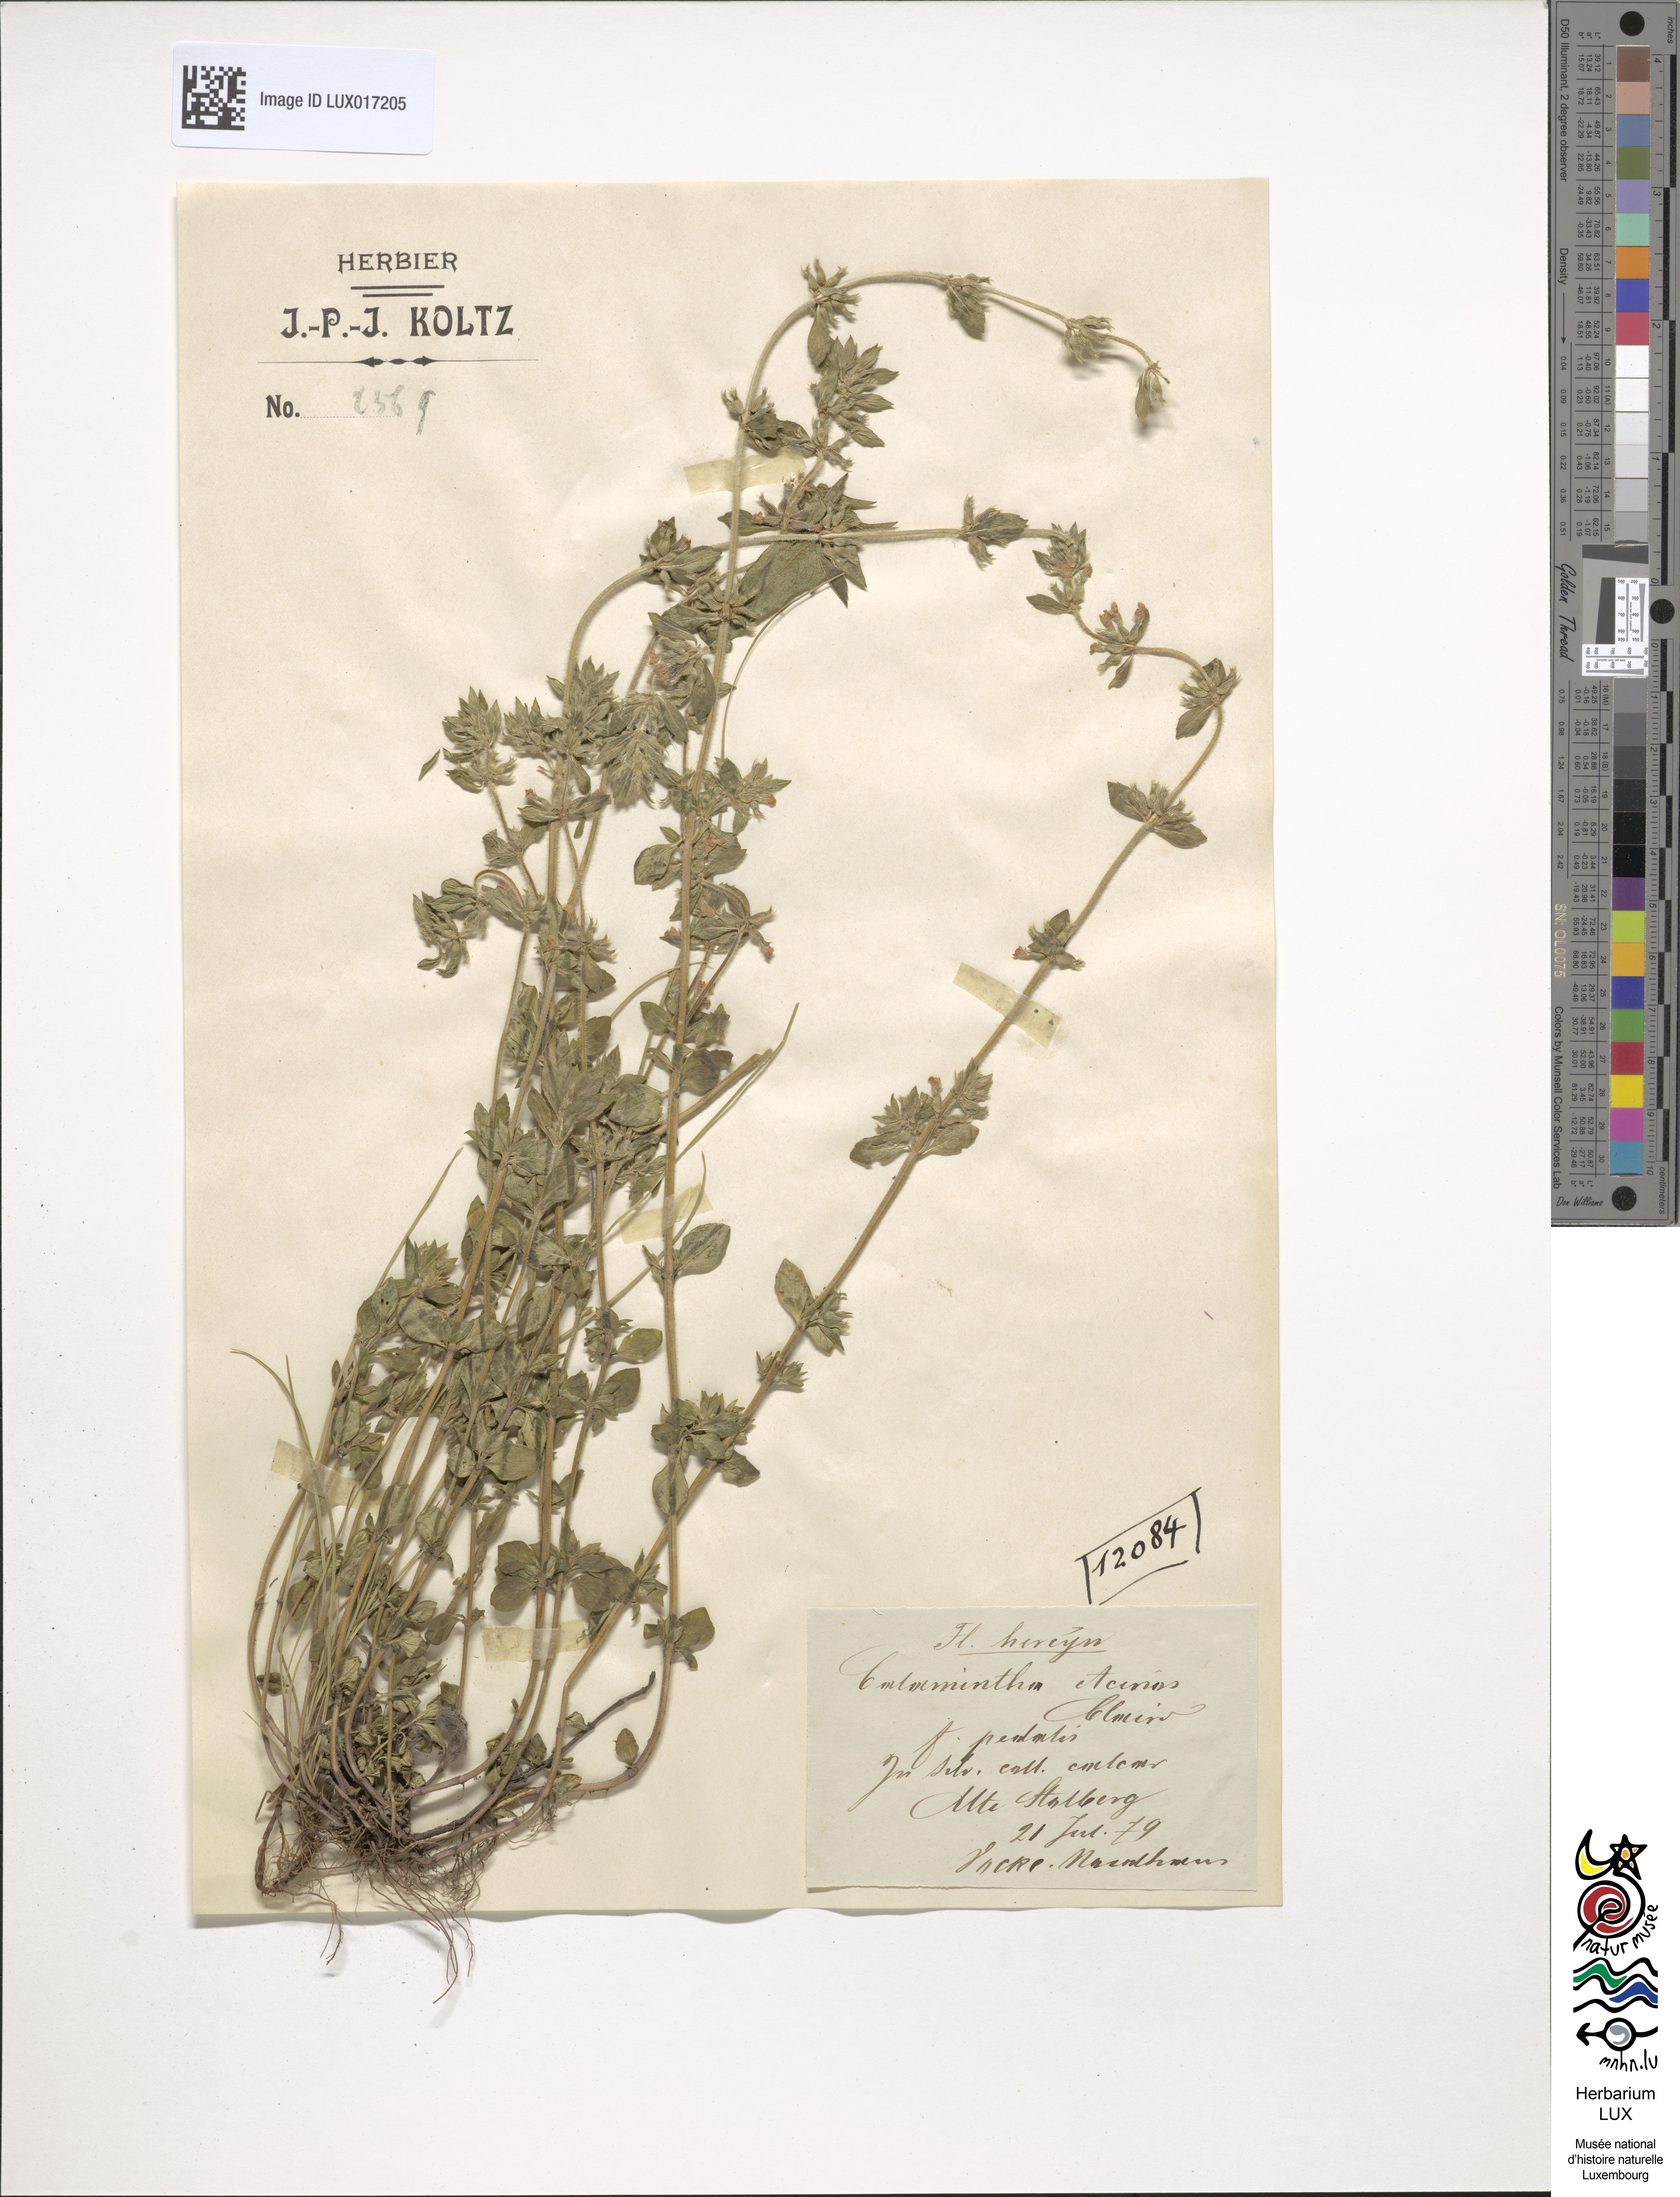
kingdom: Plantae
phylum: Tracheophyta
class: Magnoliopsida
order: Lamiales
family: Lamiaceae
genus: Clinopodium
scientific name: Clinopodium acinos
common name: Basil thyme
